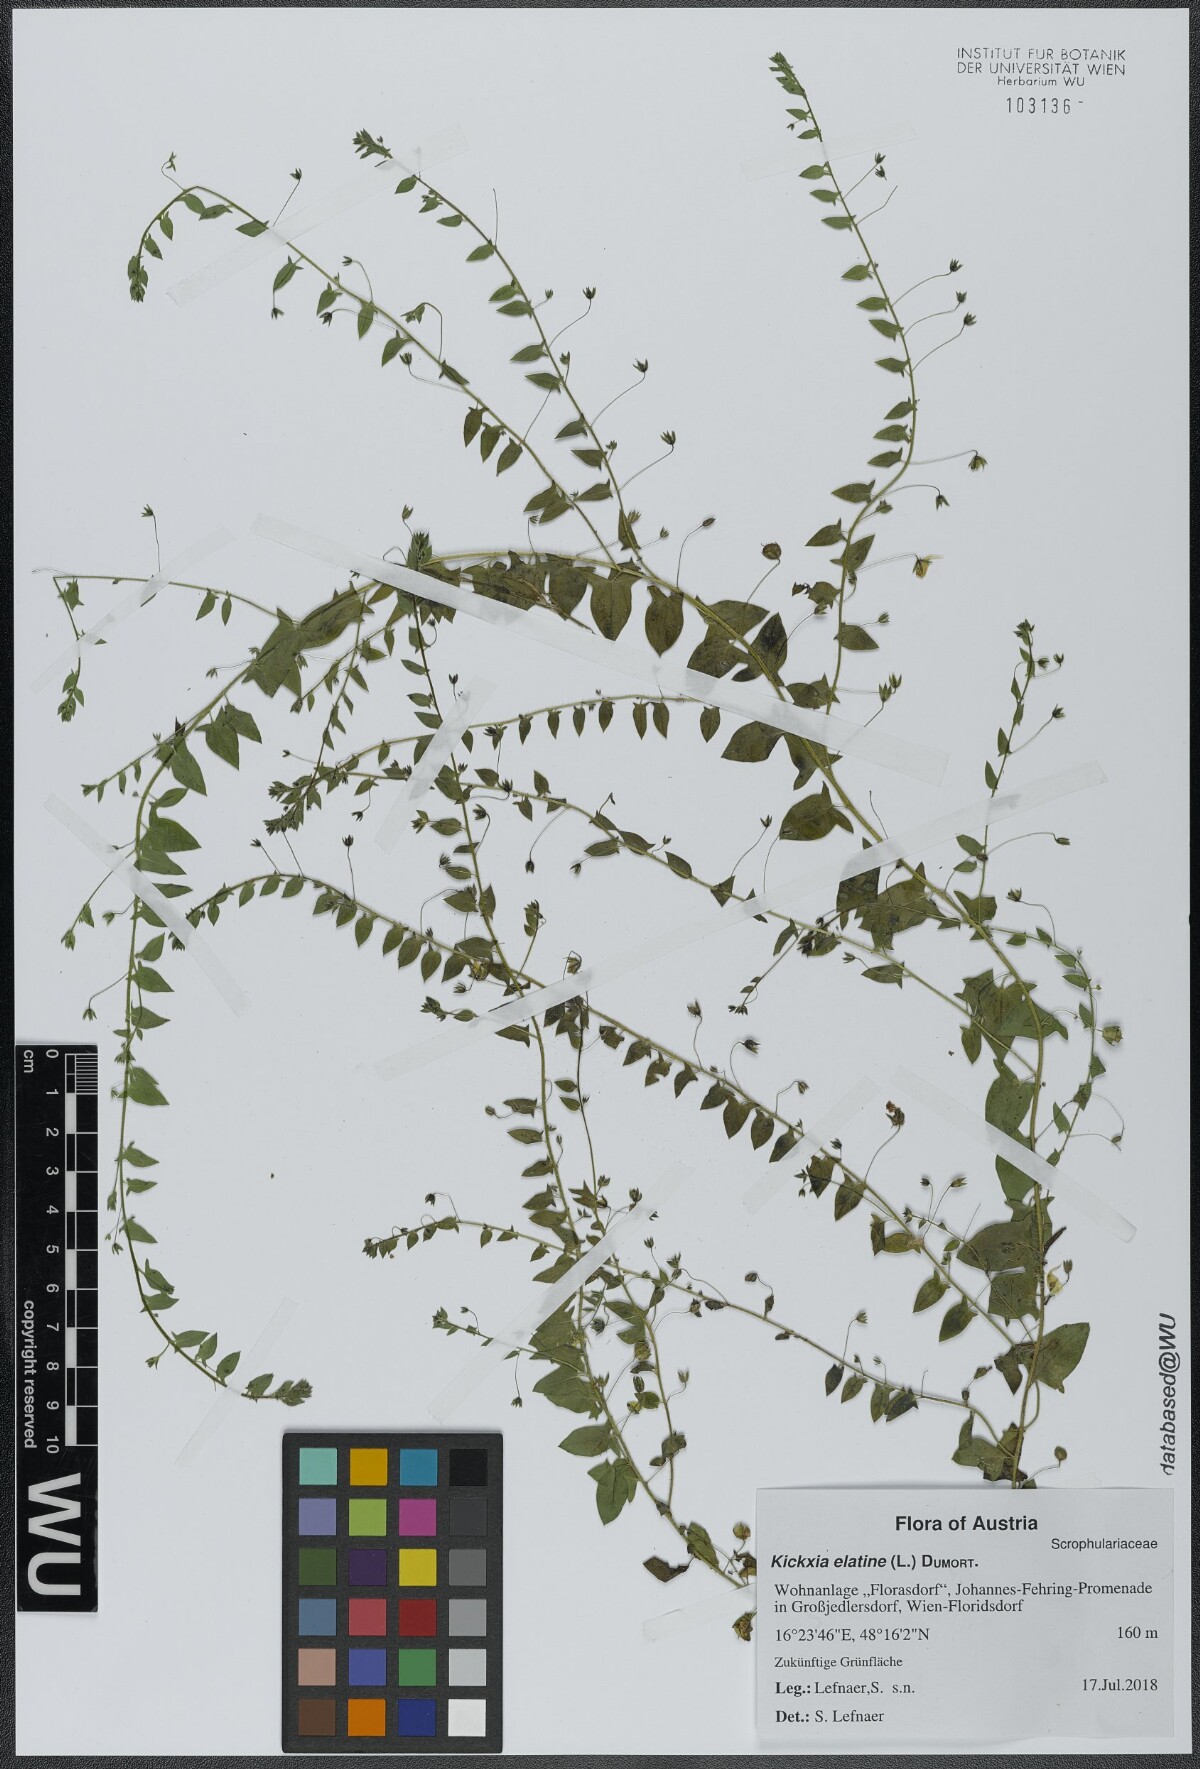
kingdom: Plantae
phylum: Tracheophyta
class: Magnoliopsida
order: Lamiales
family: Plantaginaceae
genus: Kickxia
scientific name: Kickxia elatine
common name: Sharp-leaved fluellen
